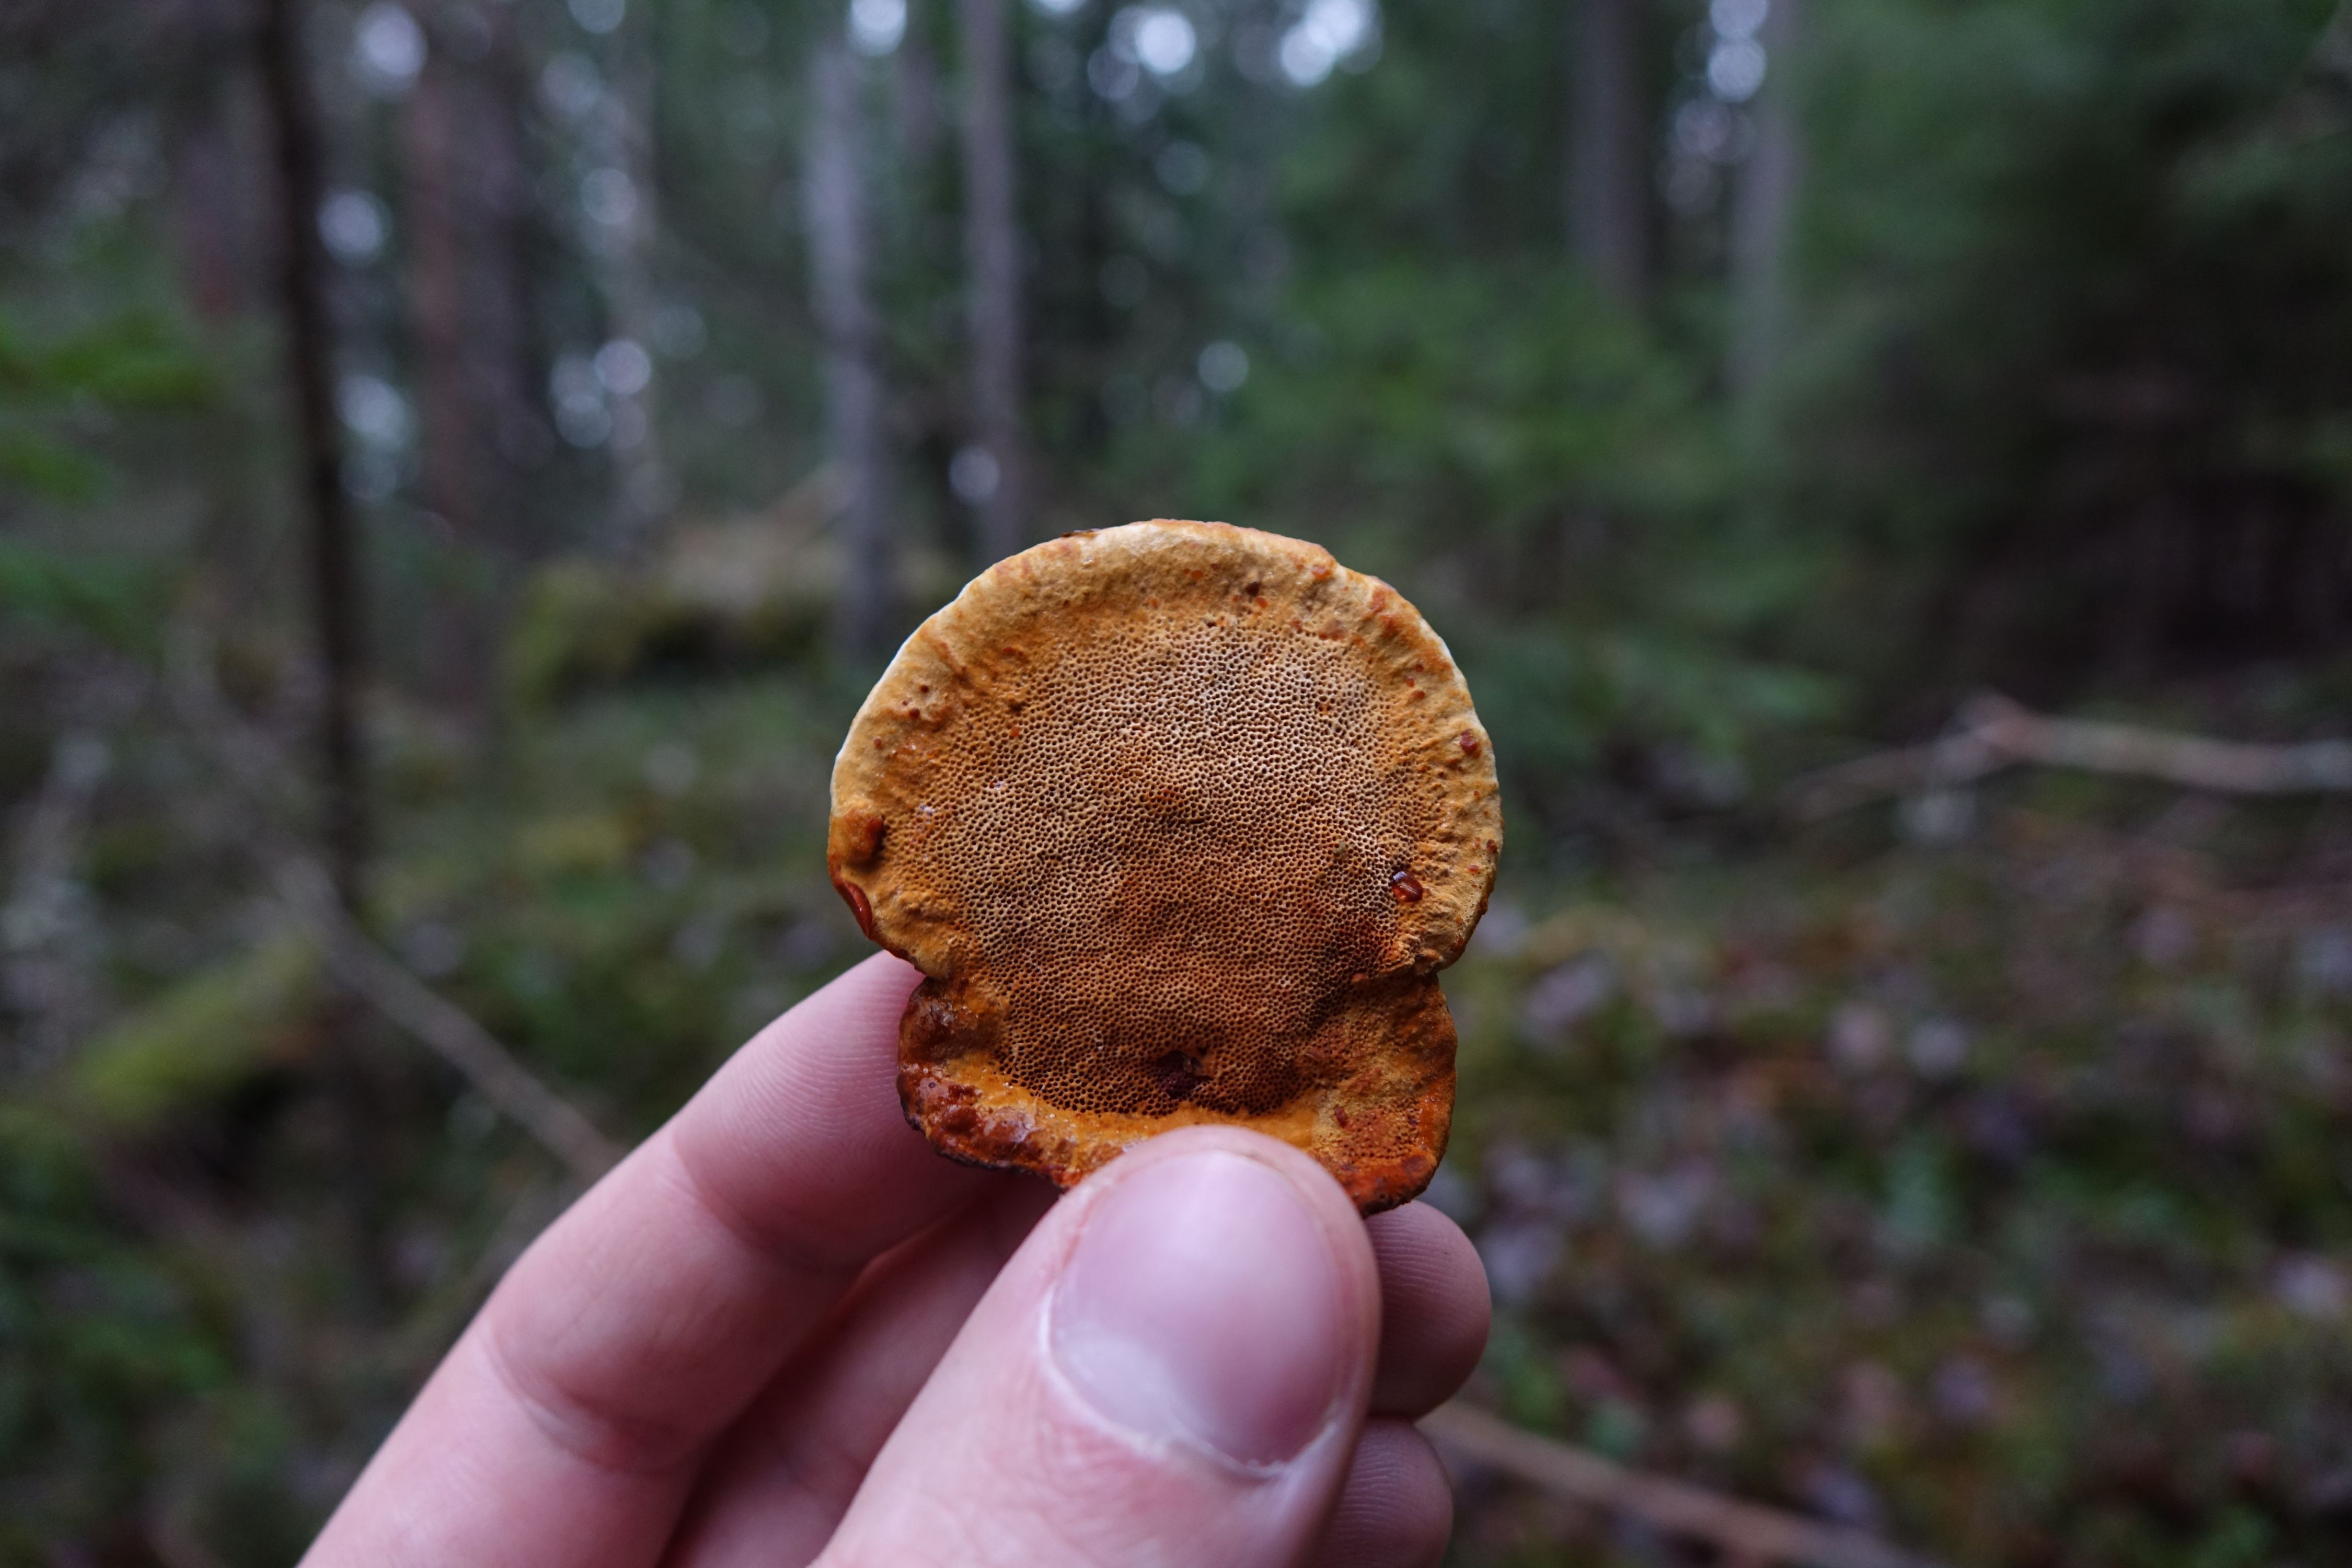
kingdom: Fungi
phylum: Basidiomycota
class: Agaricomycetes
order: Gloeophyllales
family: Gloeophyllaceae
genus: Gloeophyllum
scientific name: Gloeophyllum odoratum
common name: Anise mazegill
